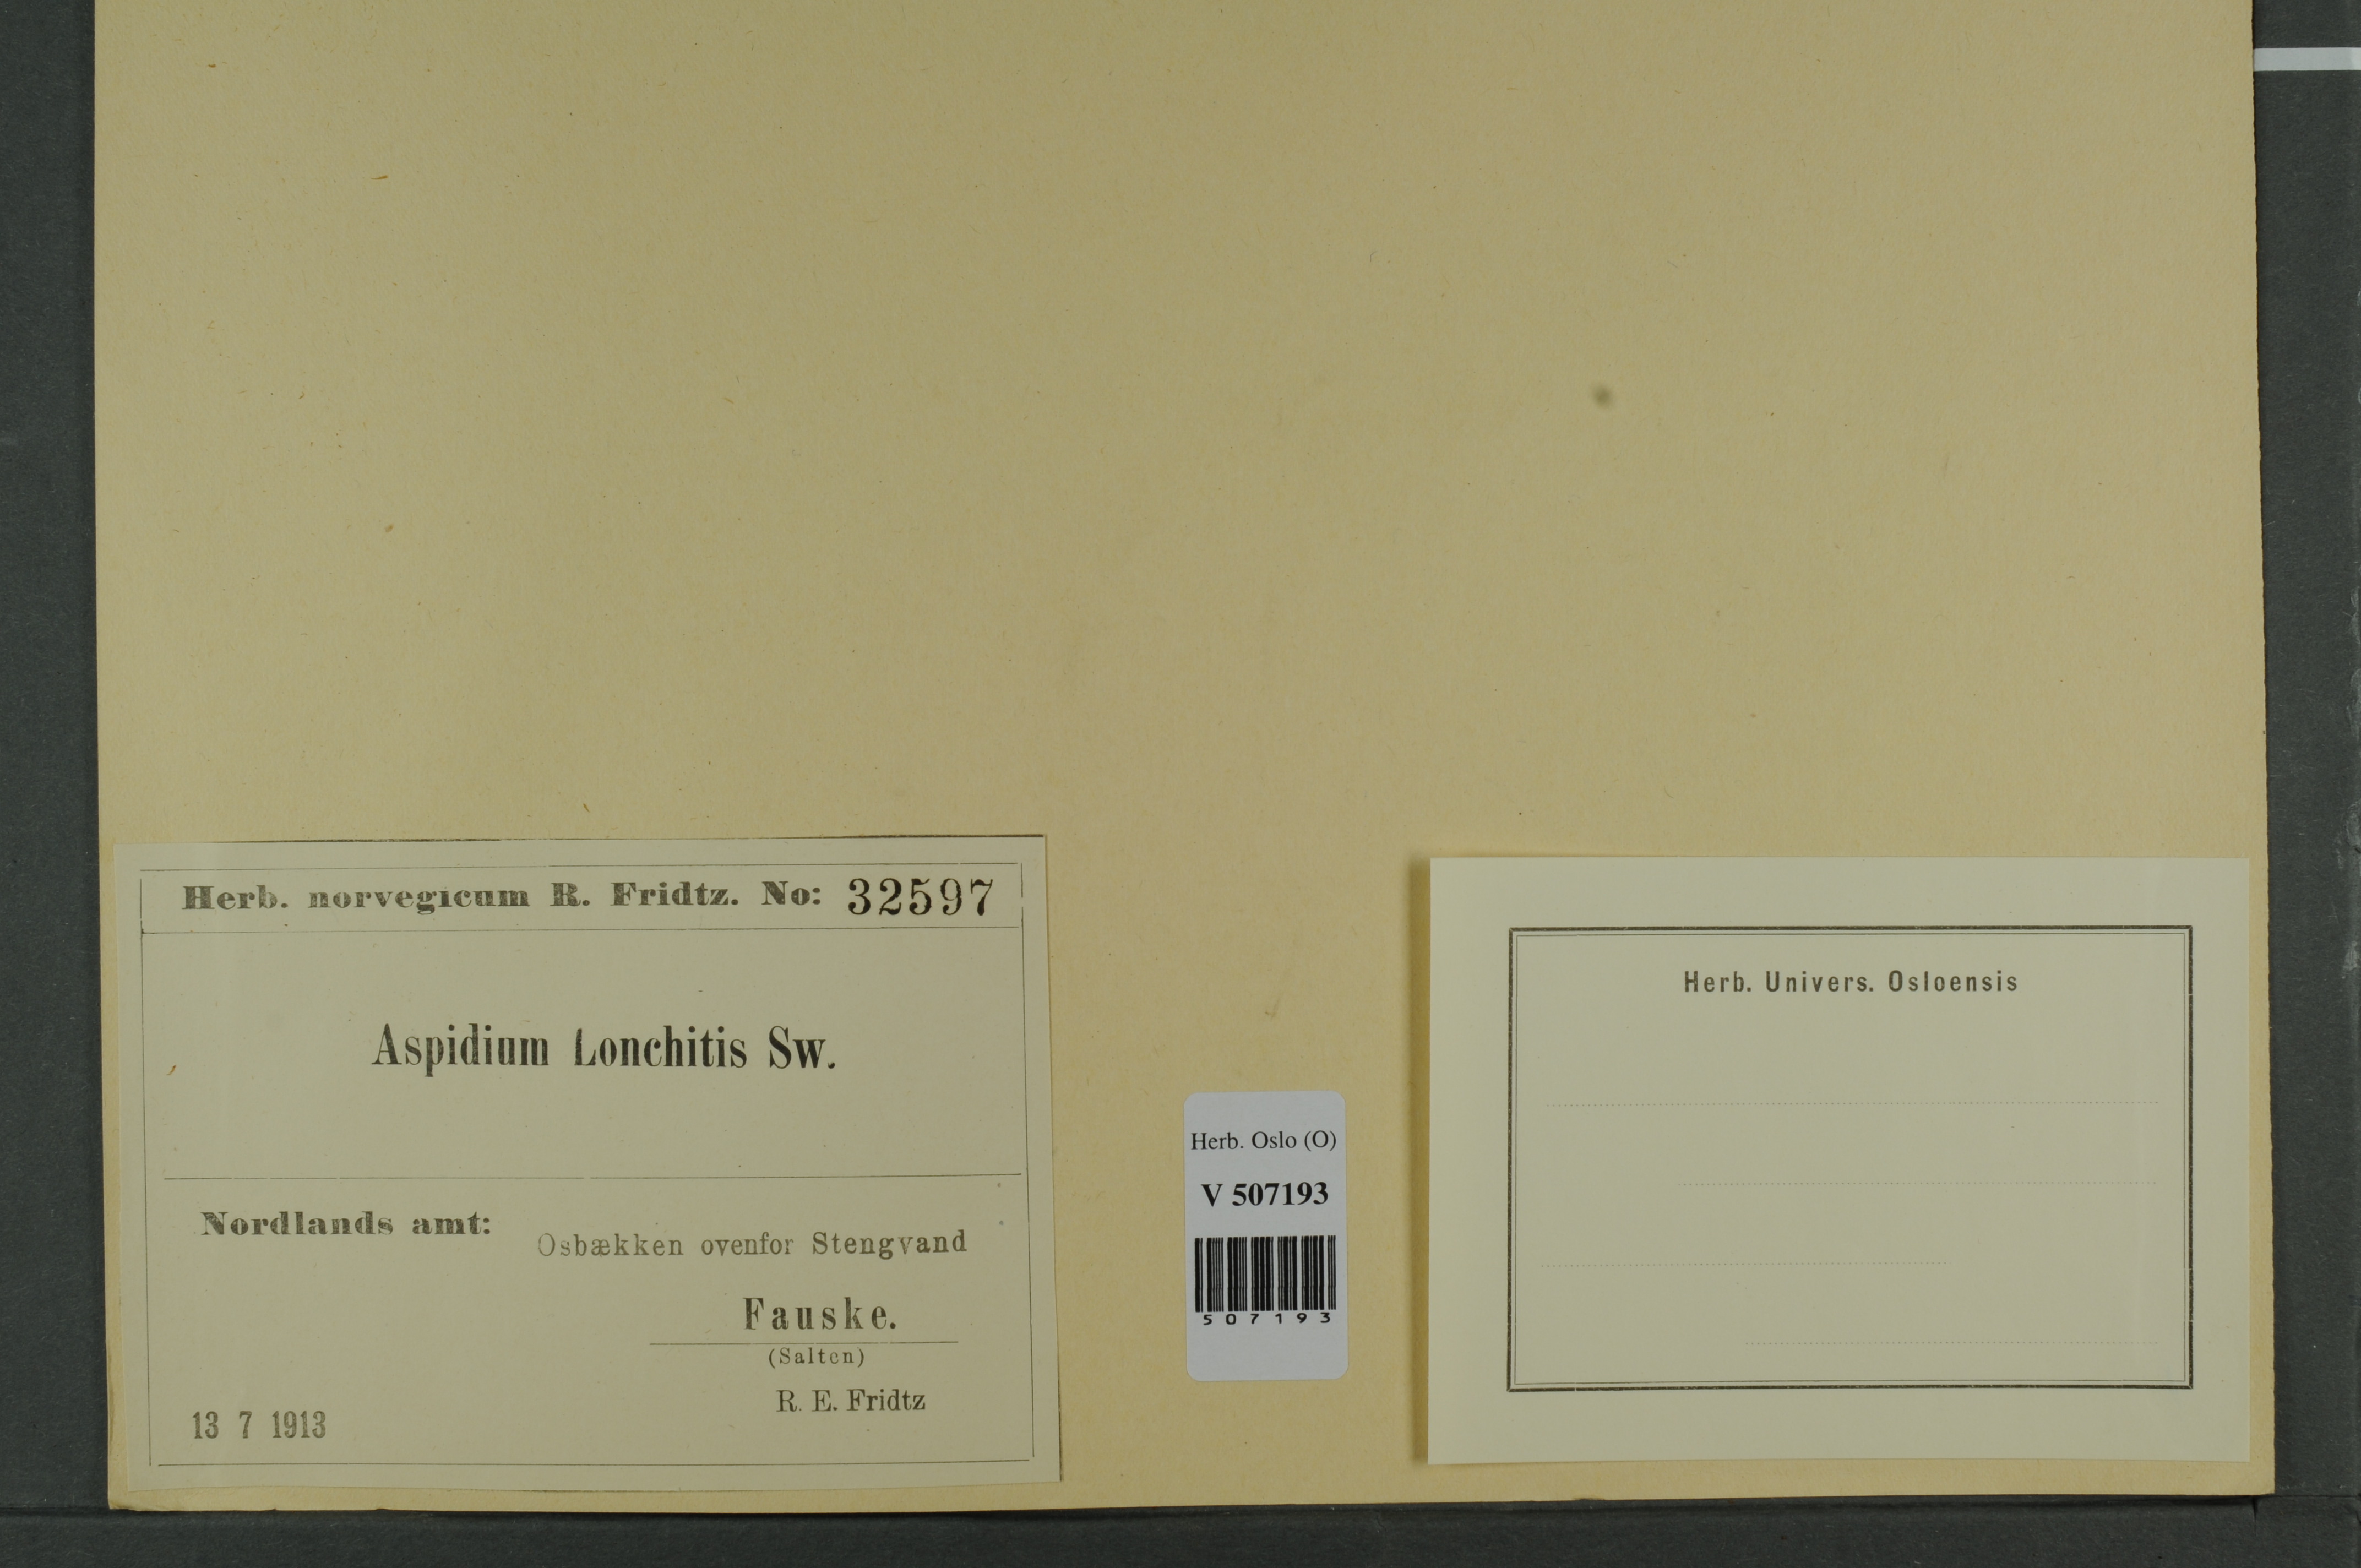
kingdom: Plantae
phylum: Tracheophyta
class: Polypodiopsida
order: Polypodiales
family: Dryopteridaceae
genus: Polystichum
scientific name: Polystichum lonchitis
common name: Holly fern
